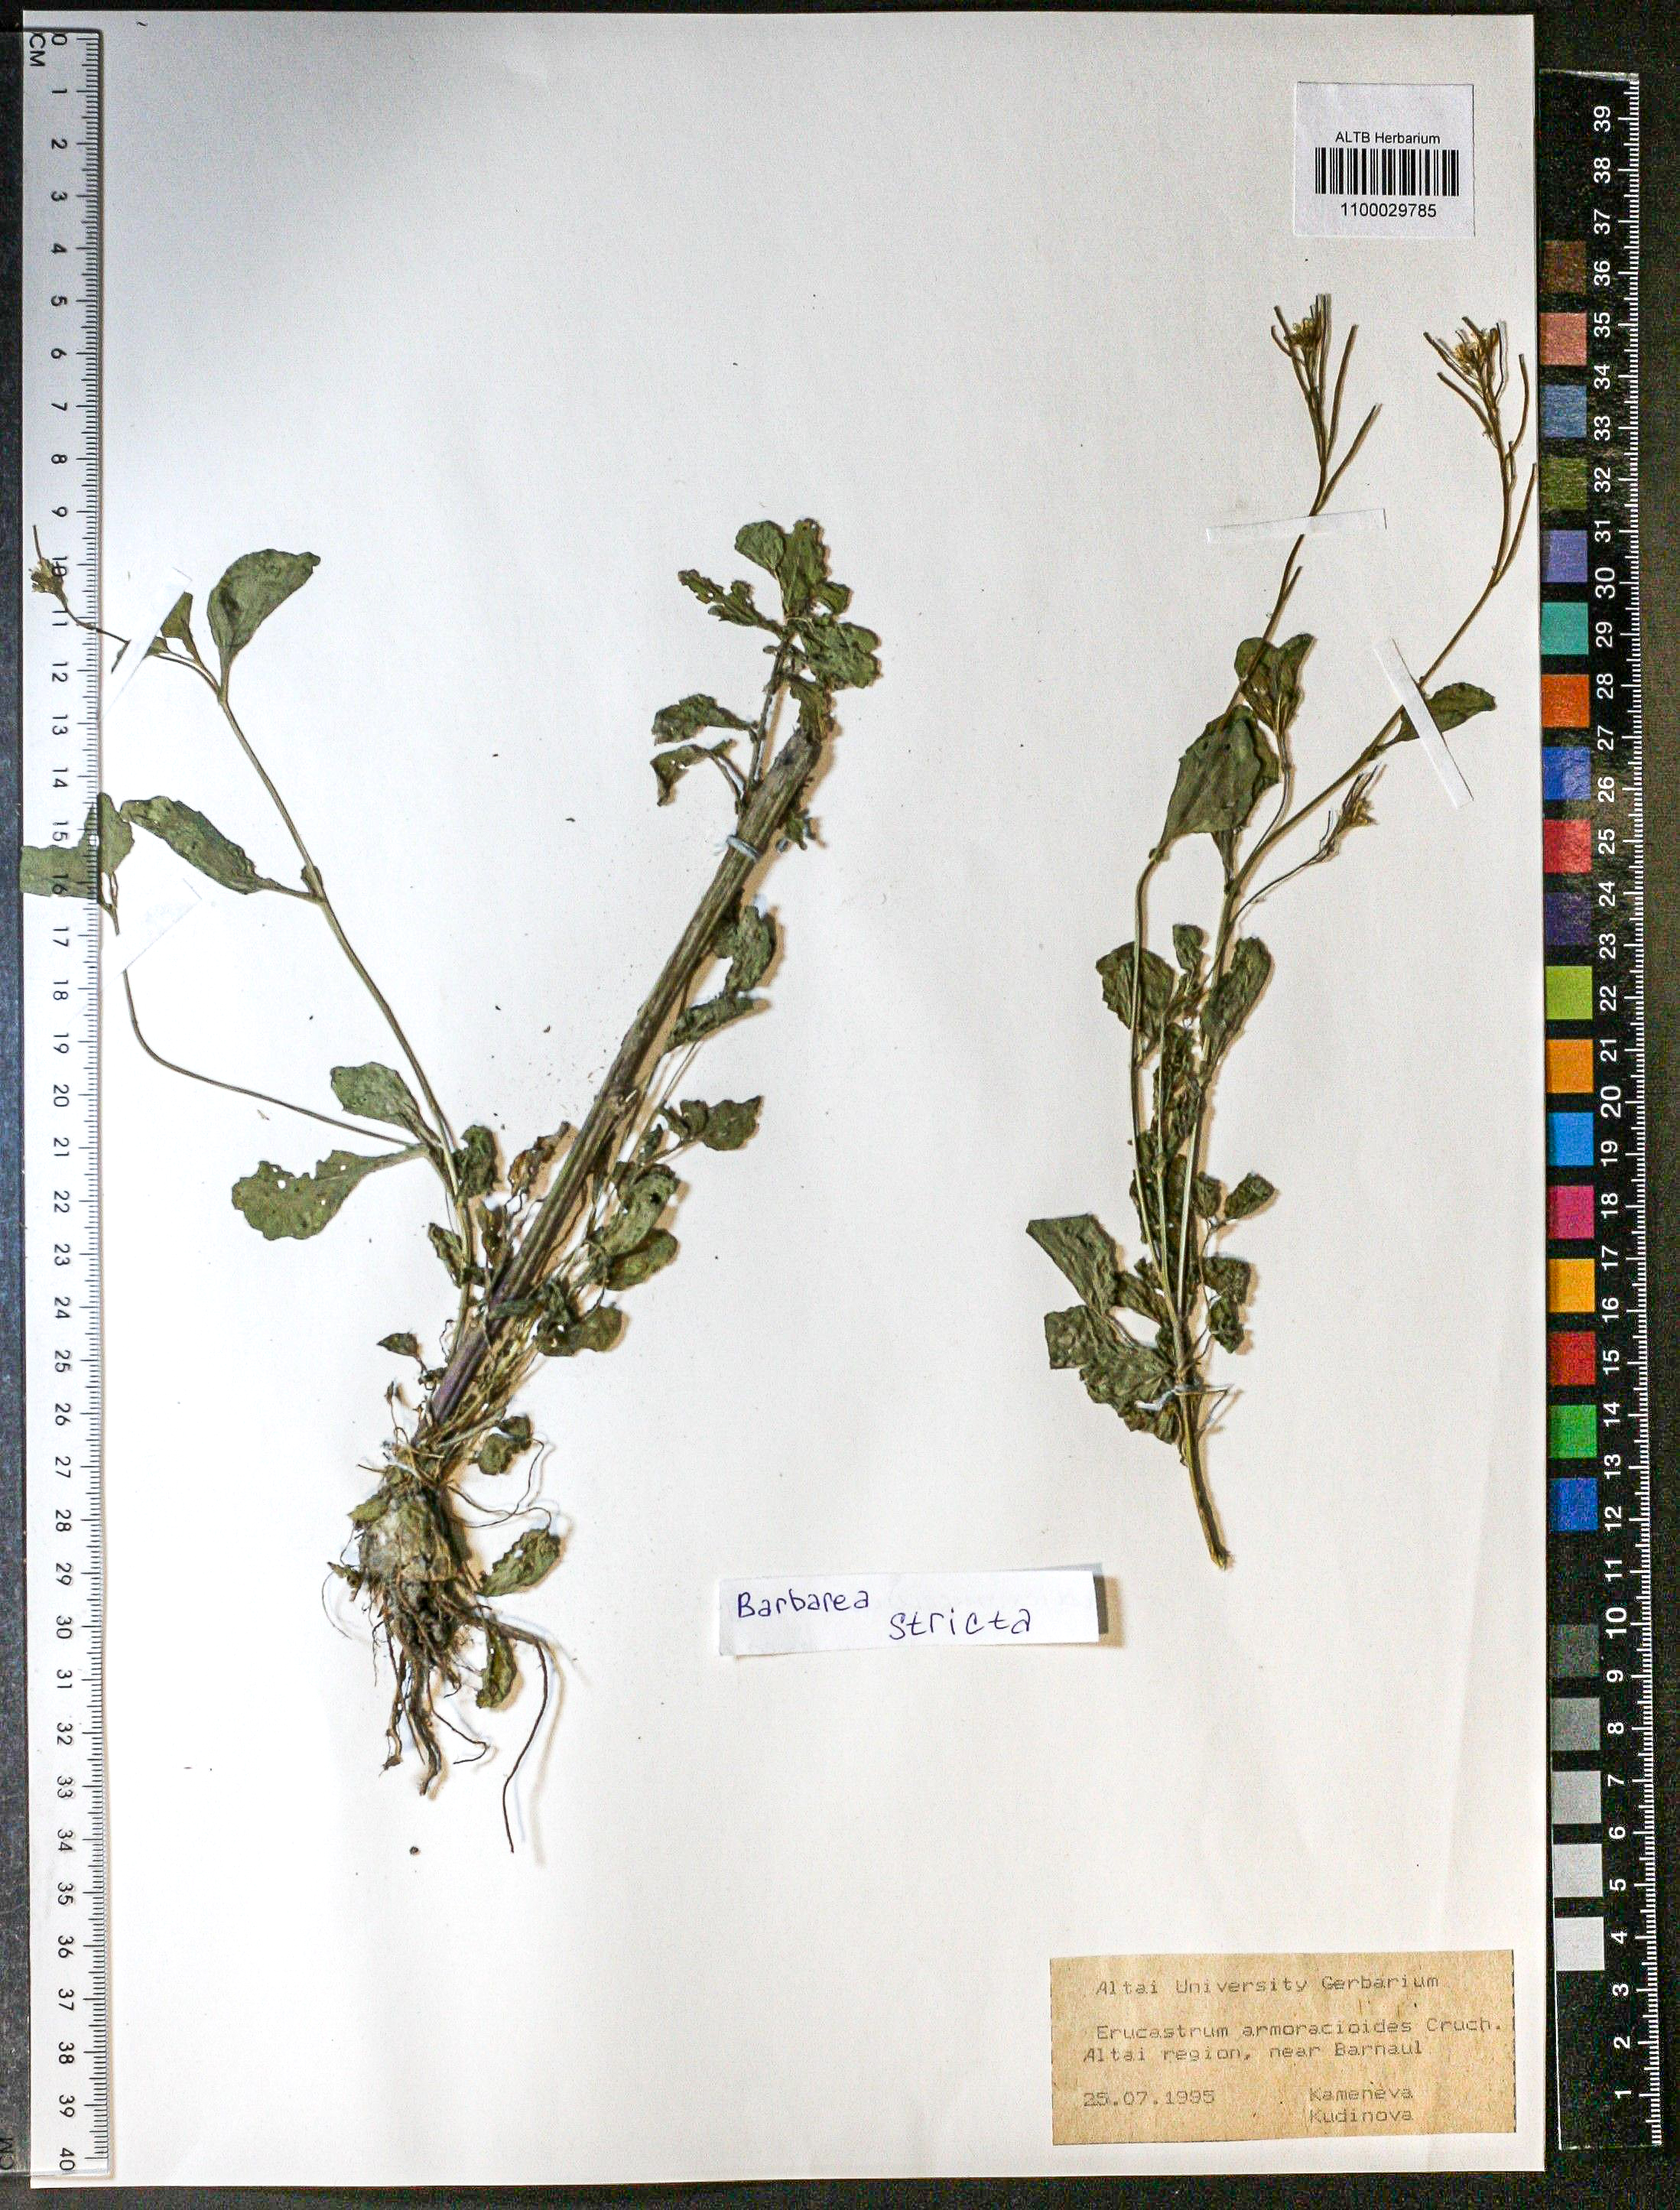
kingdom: Plantae
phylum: Tracheophyta
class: Magnoliopsida
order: Brassicales
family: Brassicaceae
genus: Barbarea
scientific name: Barbarea vulgaris
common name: Cressy-greens
